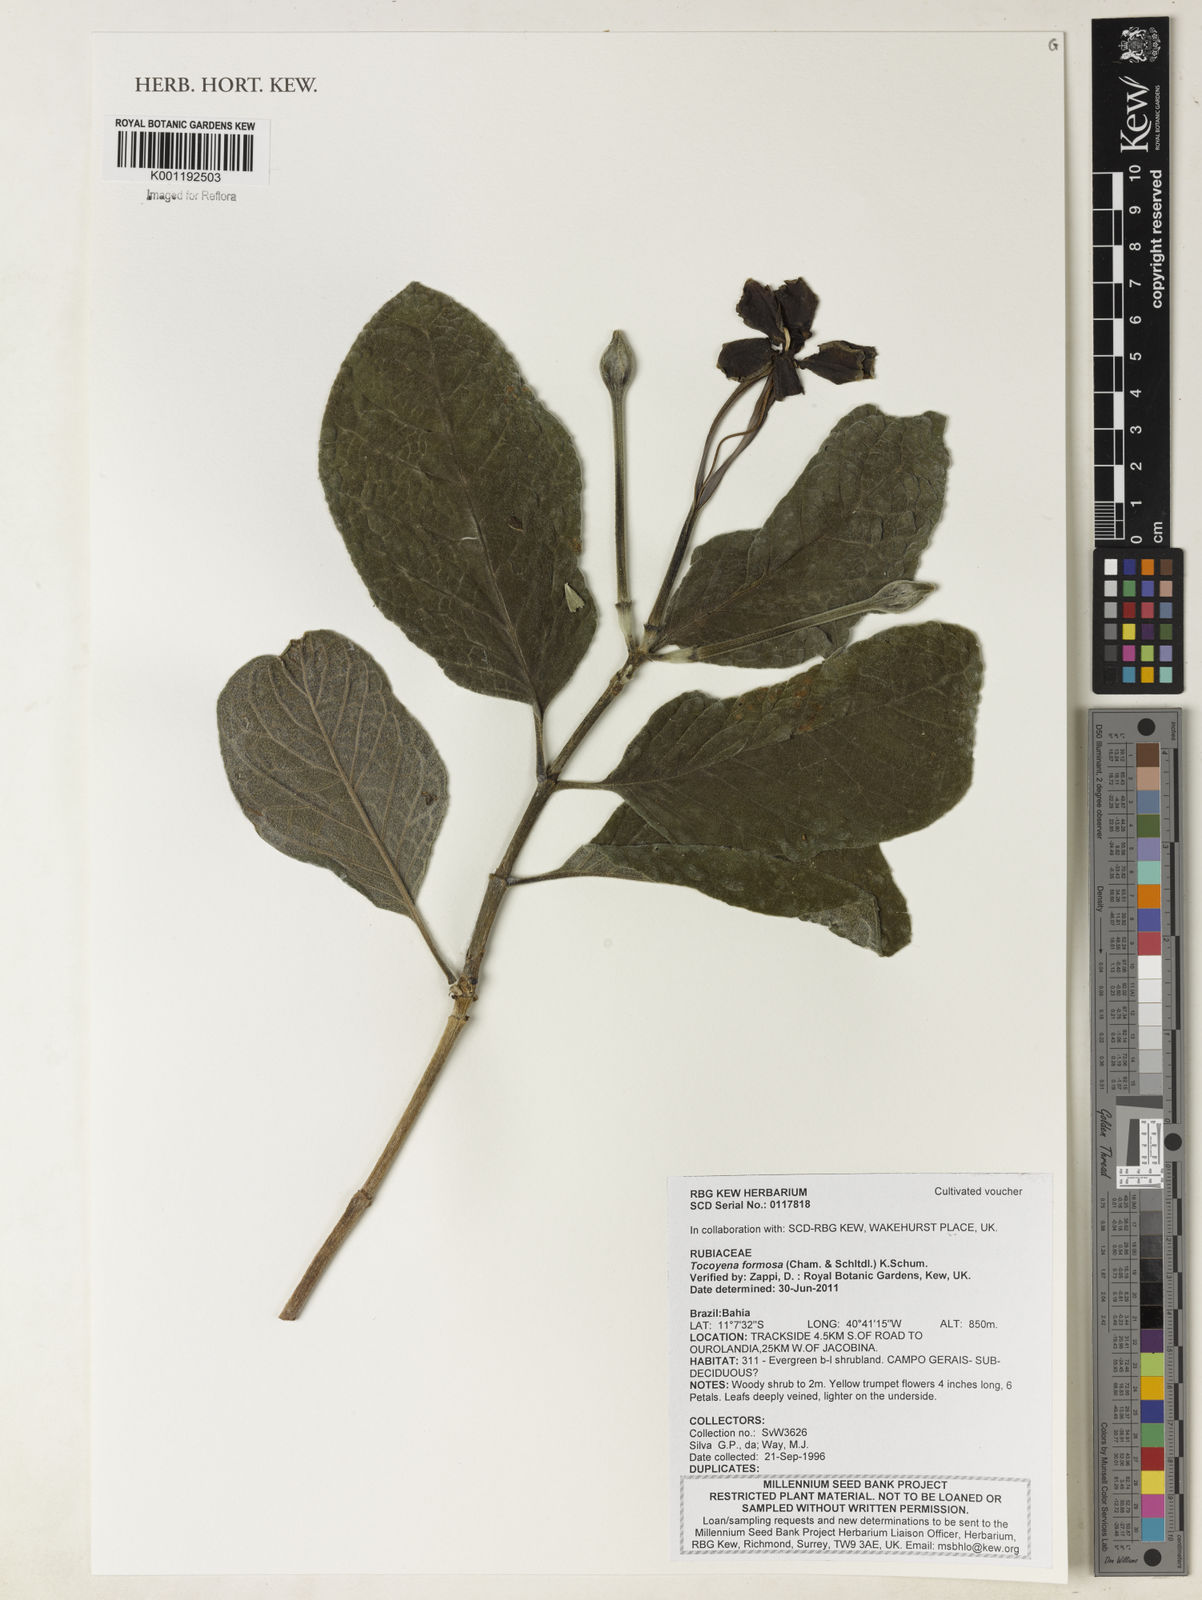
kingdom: Plantae
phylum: Tracheophyta
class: Magnoliopsida
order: Gentianales
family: Rubiaceae
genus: Tocoyena
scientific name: Tocoyena formosa
